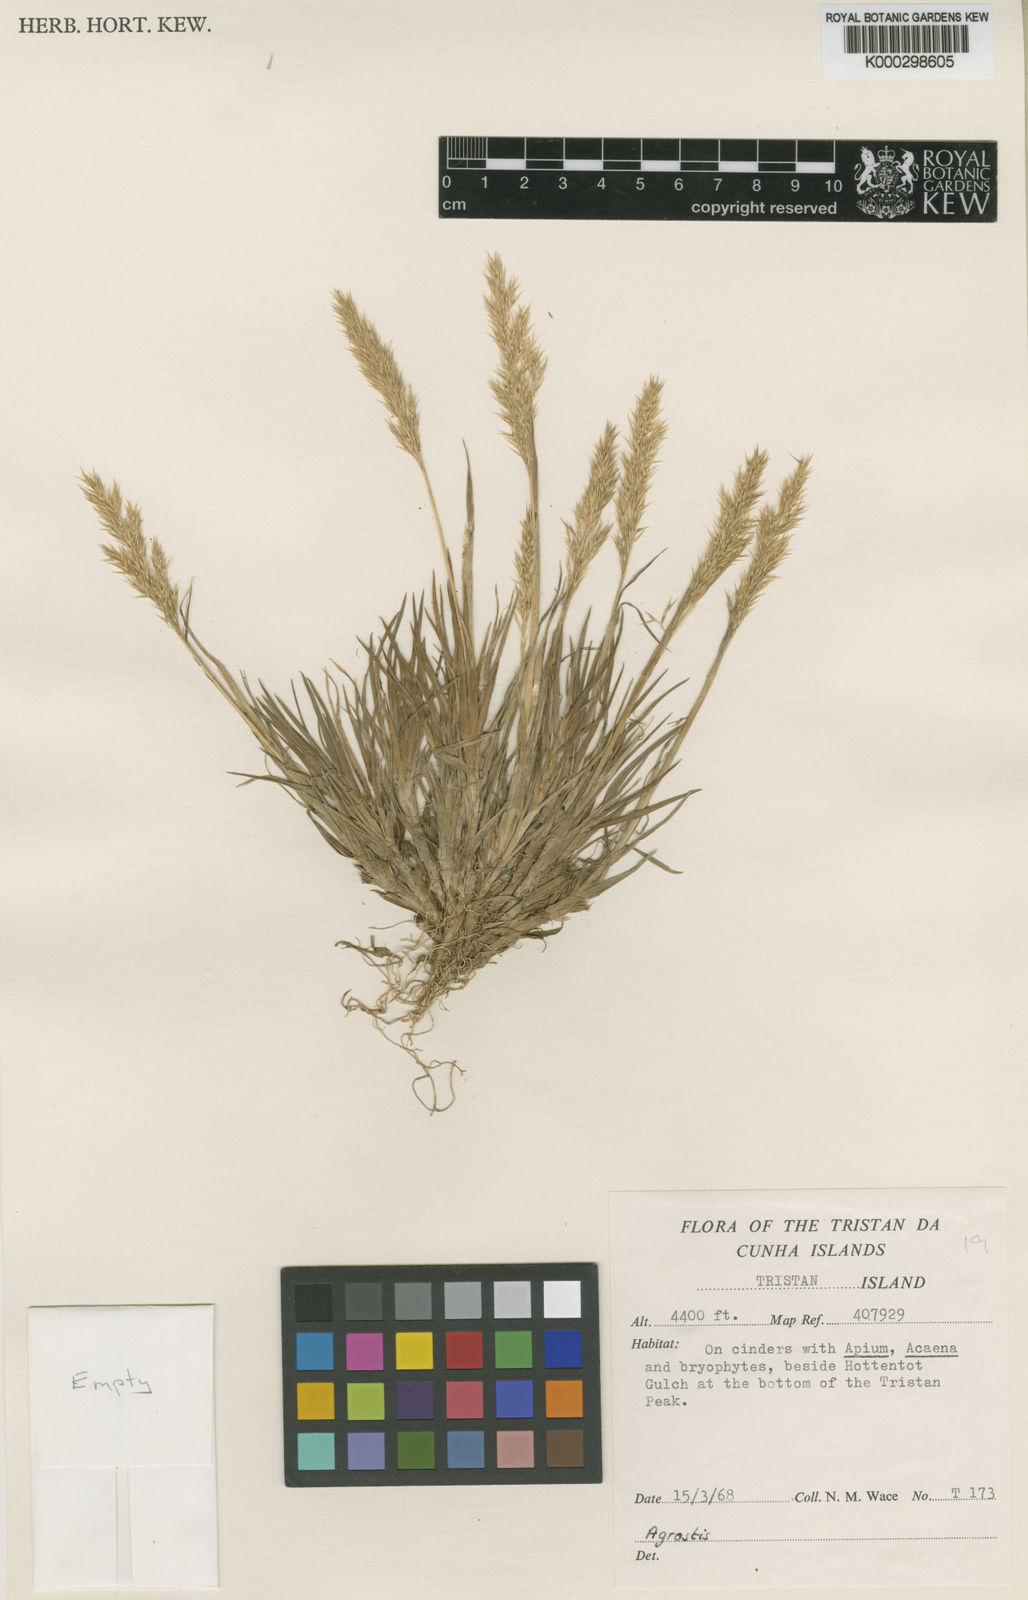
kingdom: Plantae
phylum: Tracheophyta
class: Liliopsida
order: Poales
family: Poaceae
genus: Agrostis
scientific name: Agrostis
